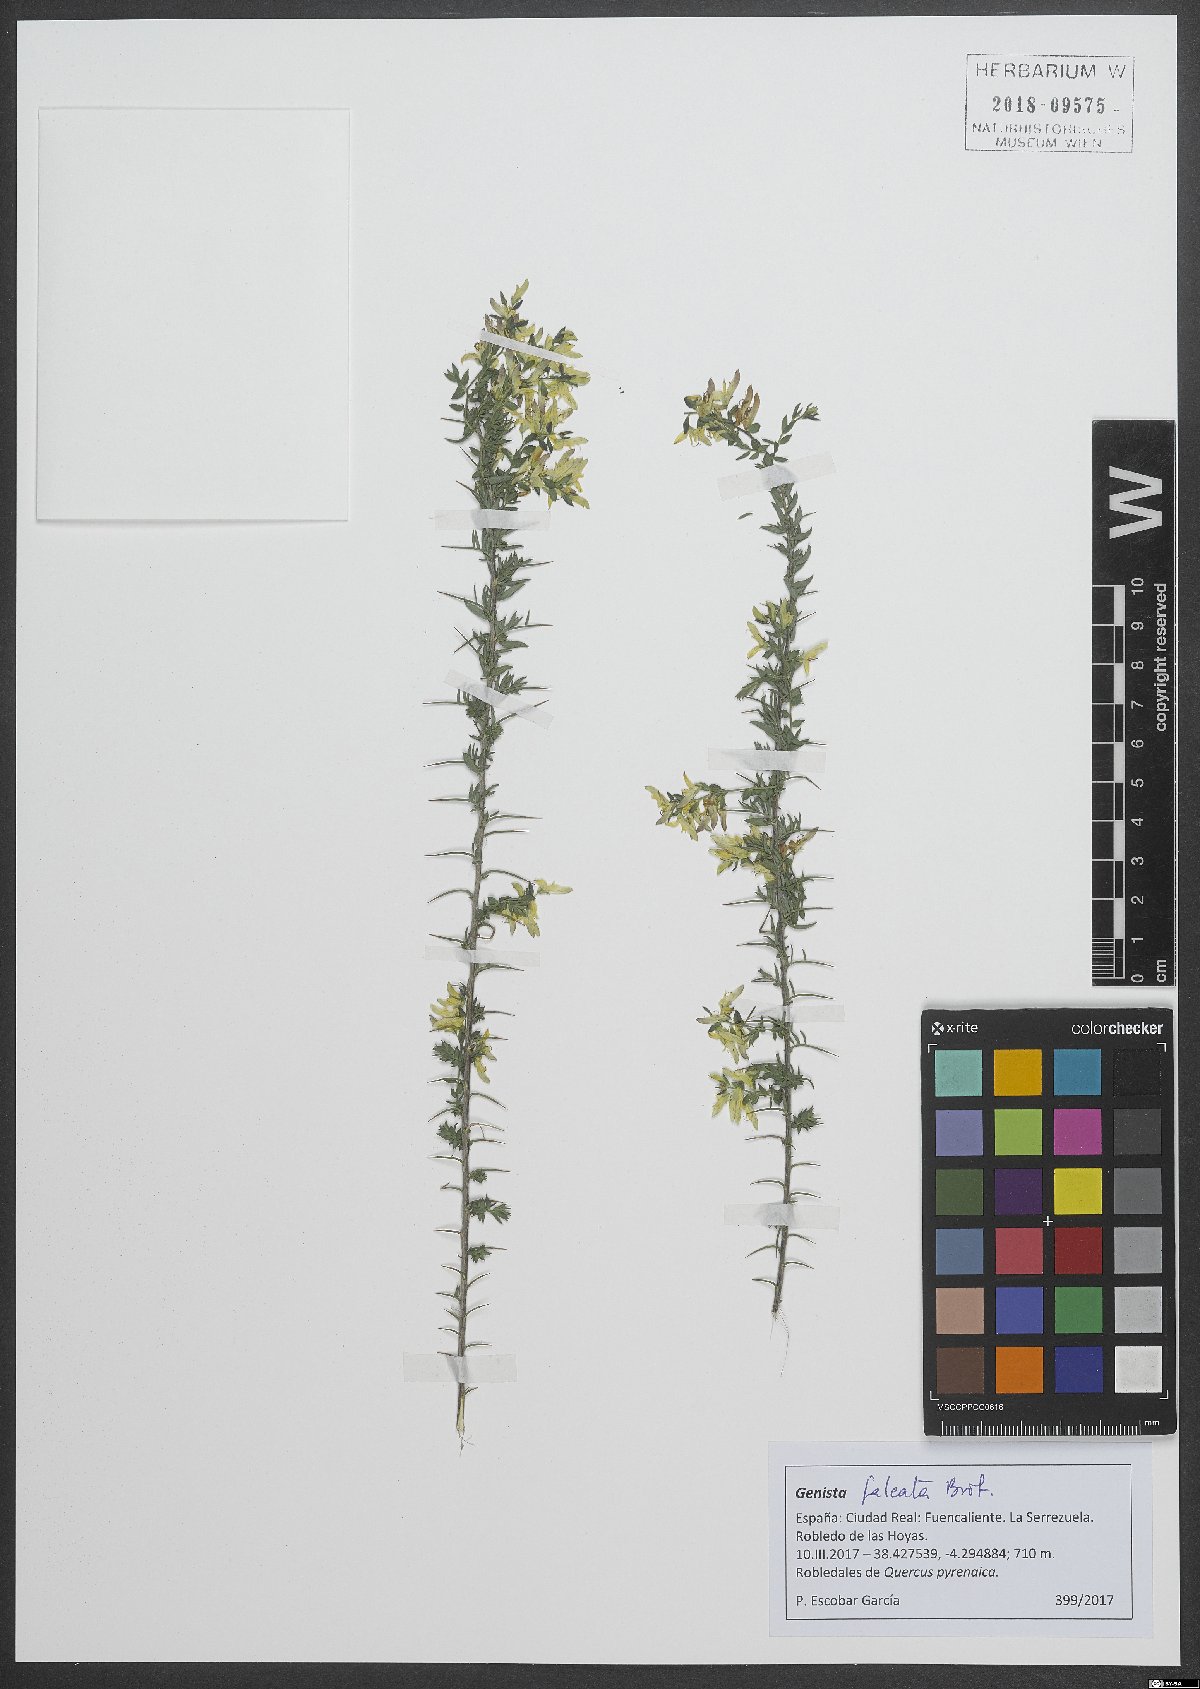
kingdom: Plantae
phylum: Tracheophyta
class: Magnoliopsida
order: Fabales
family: Fabaceae
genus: Genista
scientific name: Genista falcata
